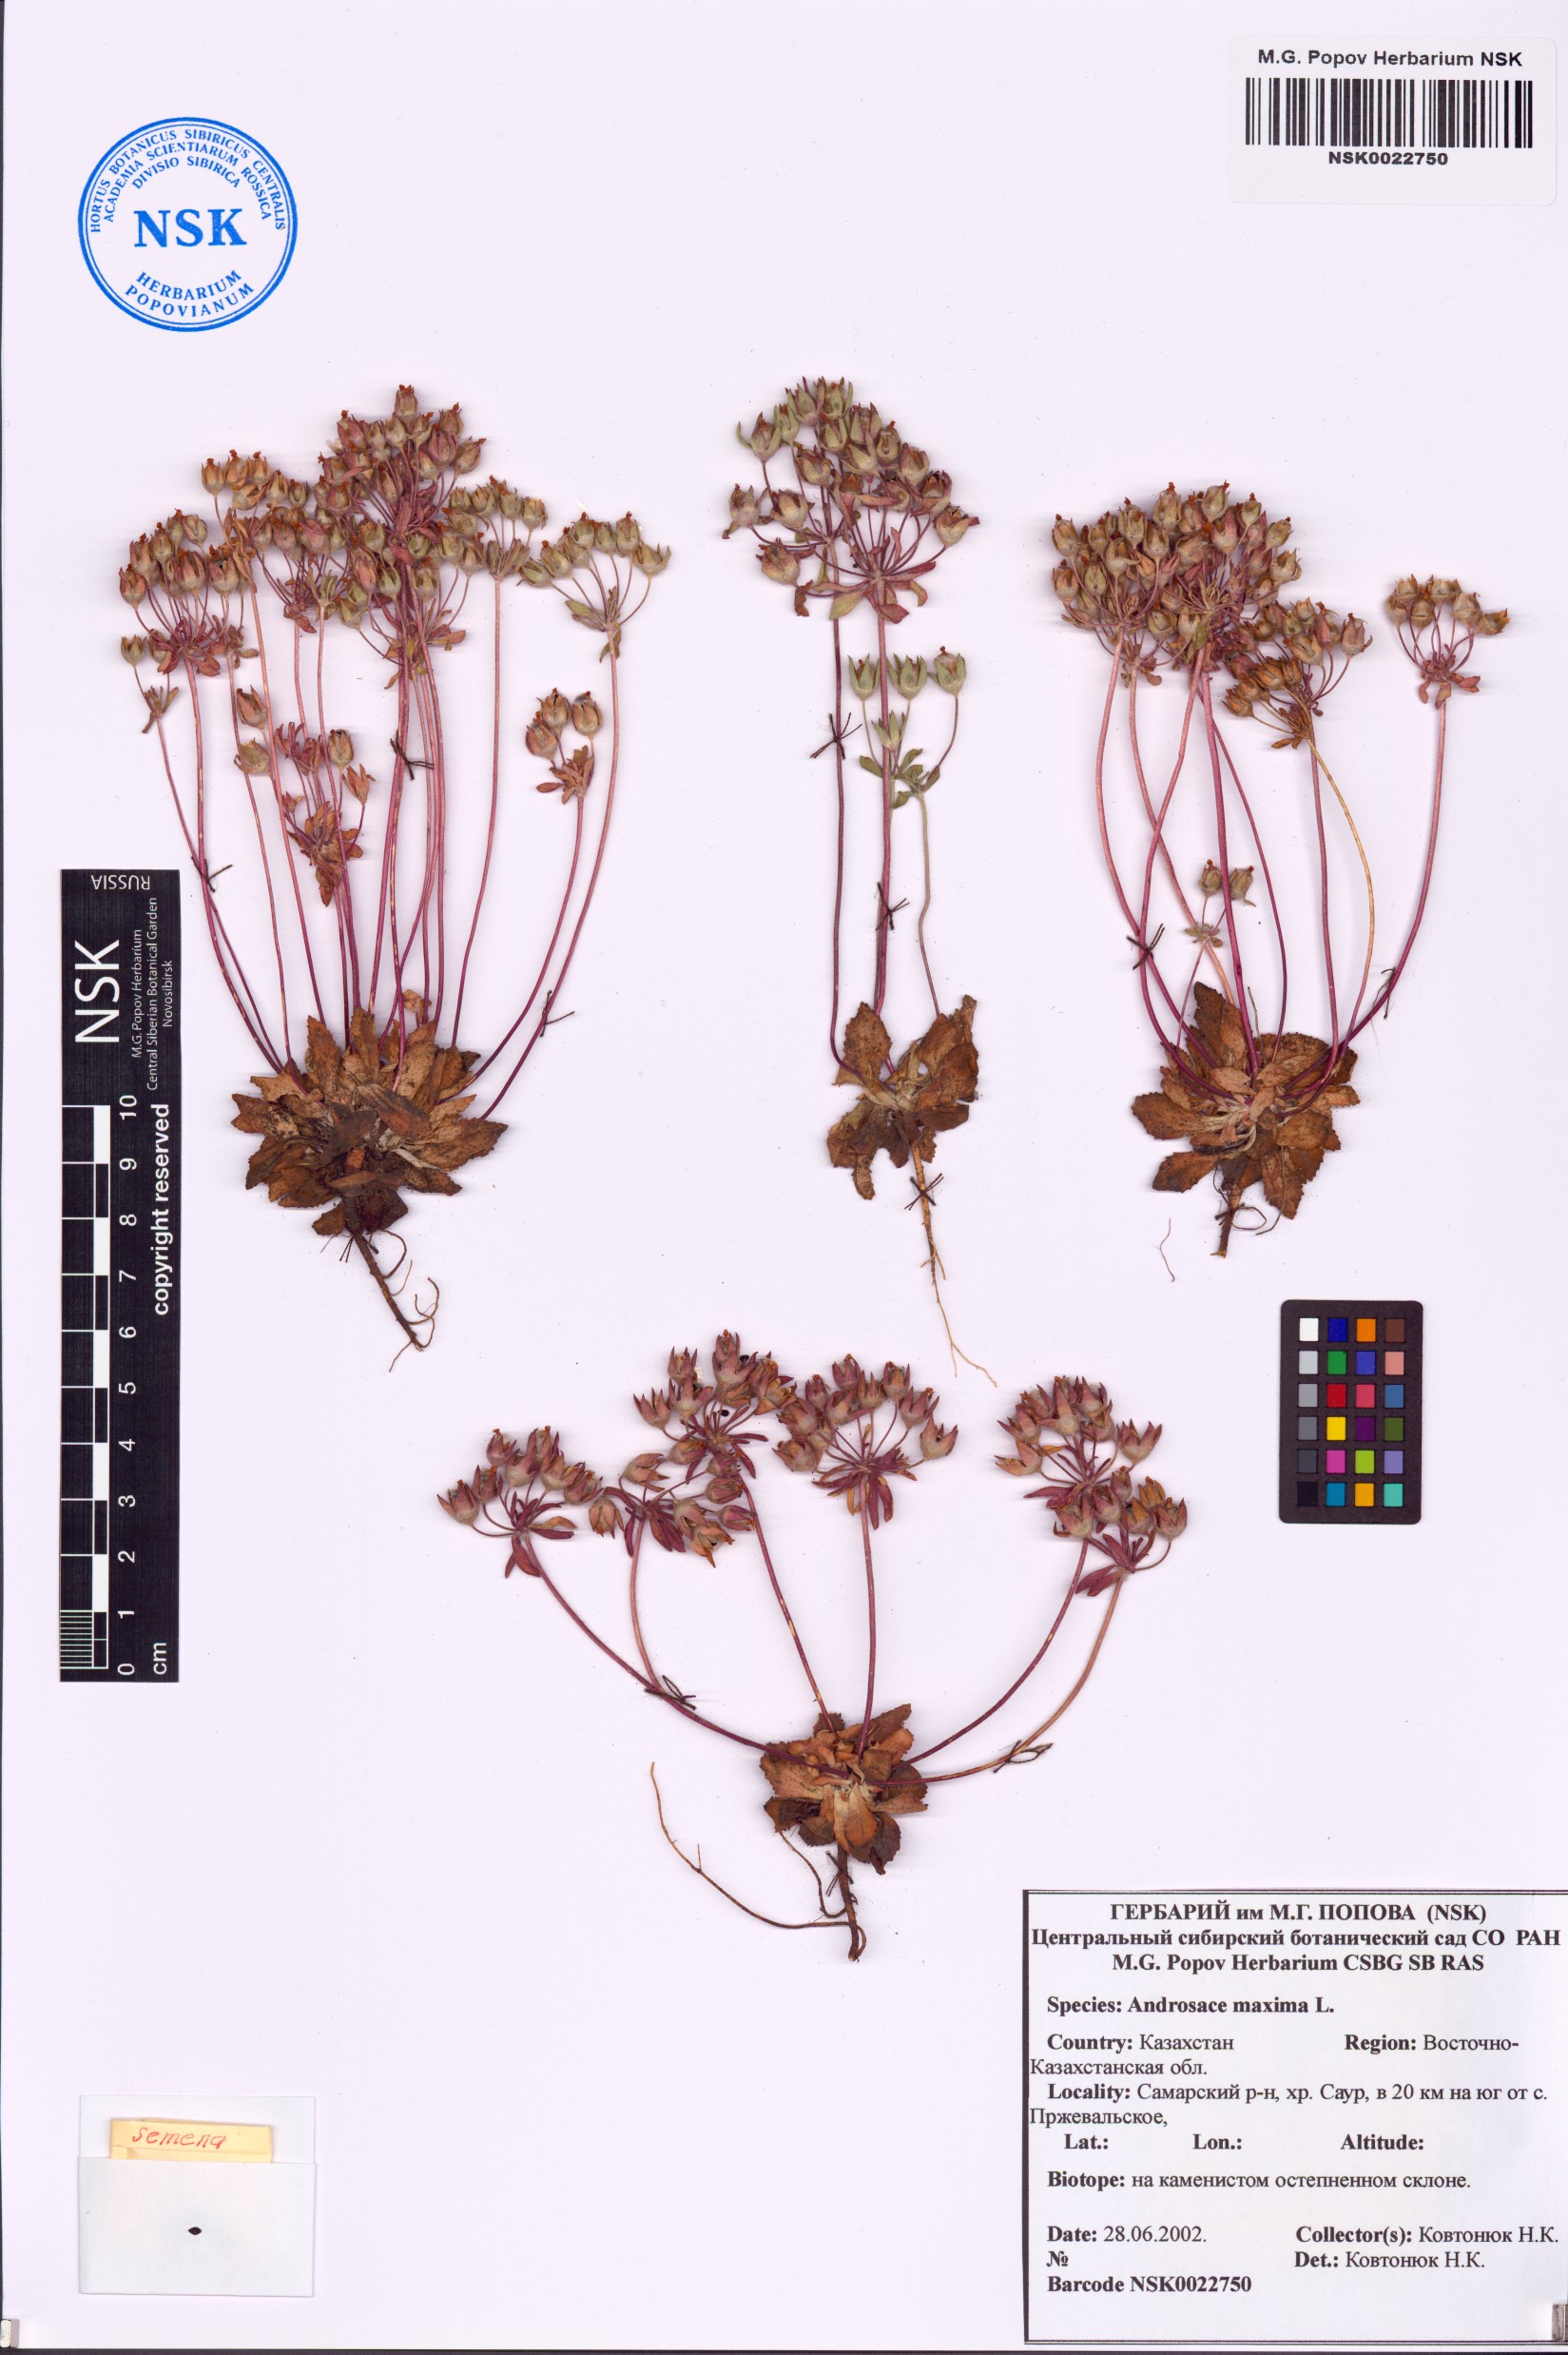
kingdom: Plantae
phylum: Tracheophyta
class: Magnoliopsida
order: Ericales
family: Primulaceae
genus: Androsace
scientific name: Androsace maxima
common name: Annual androsace
